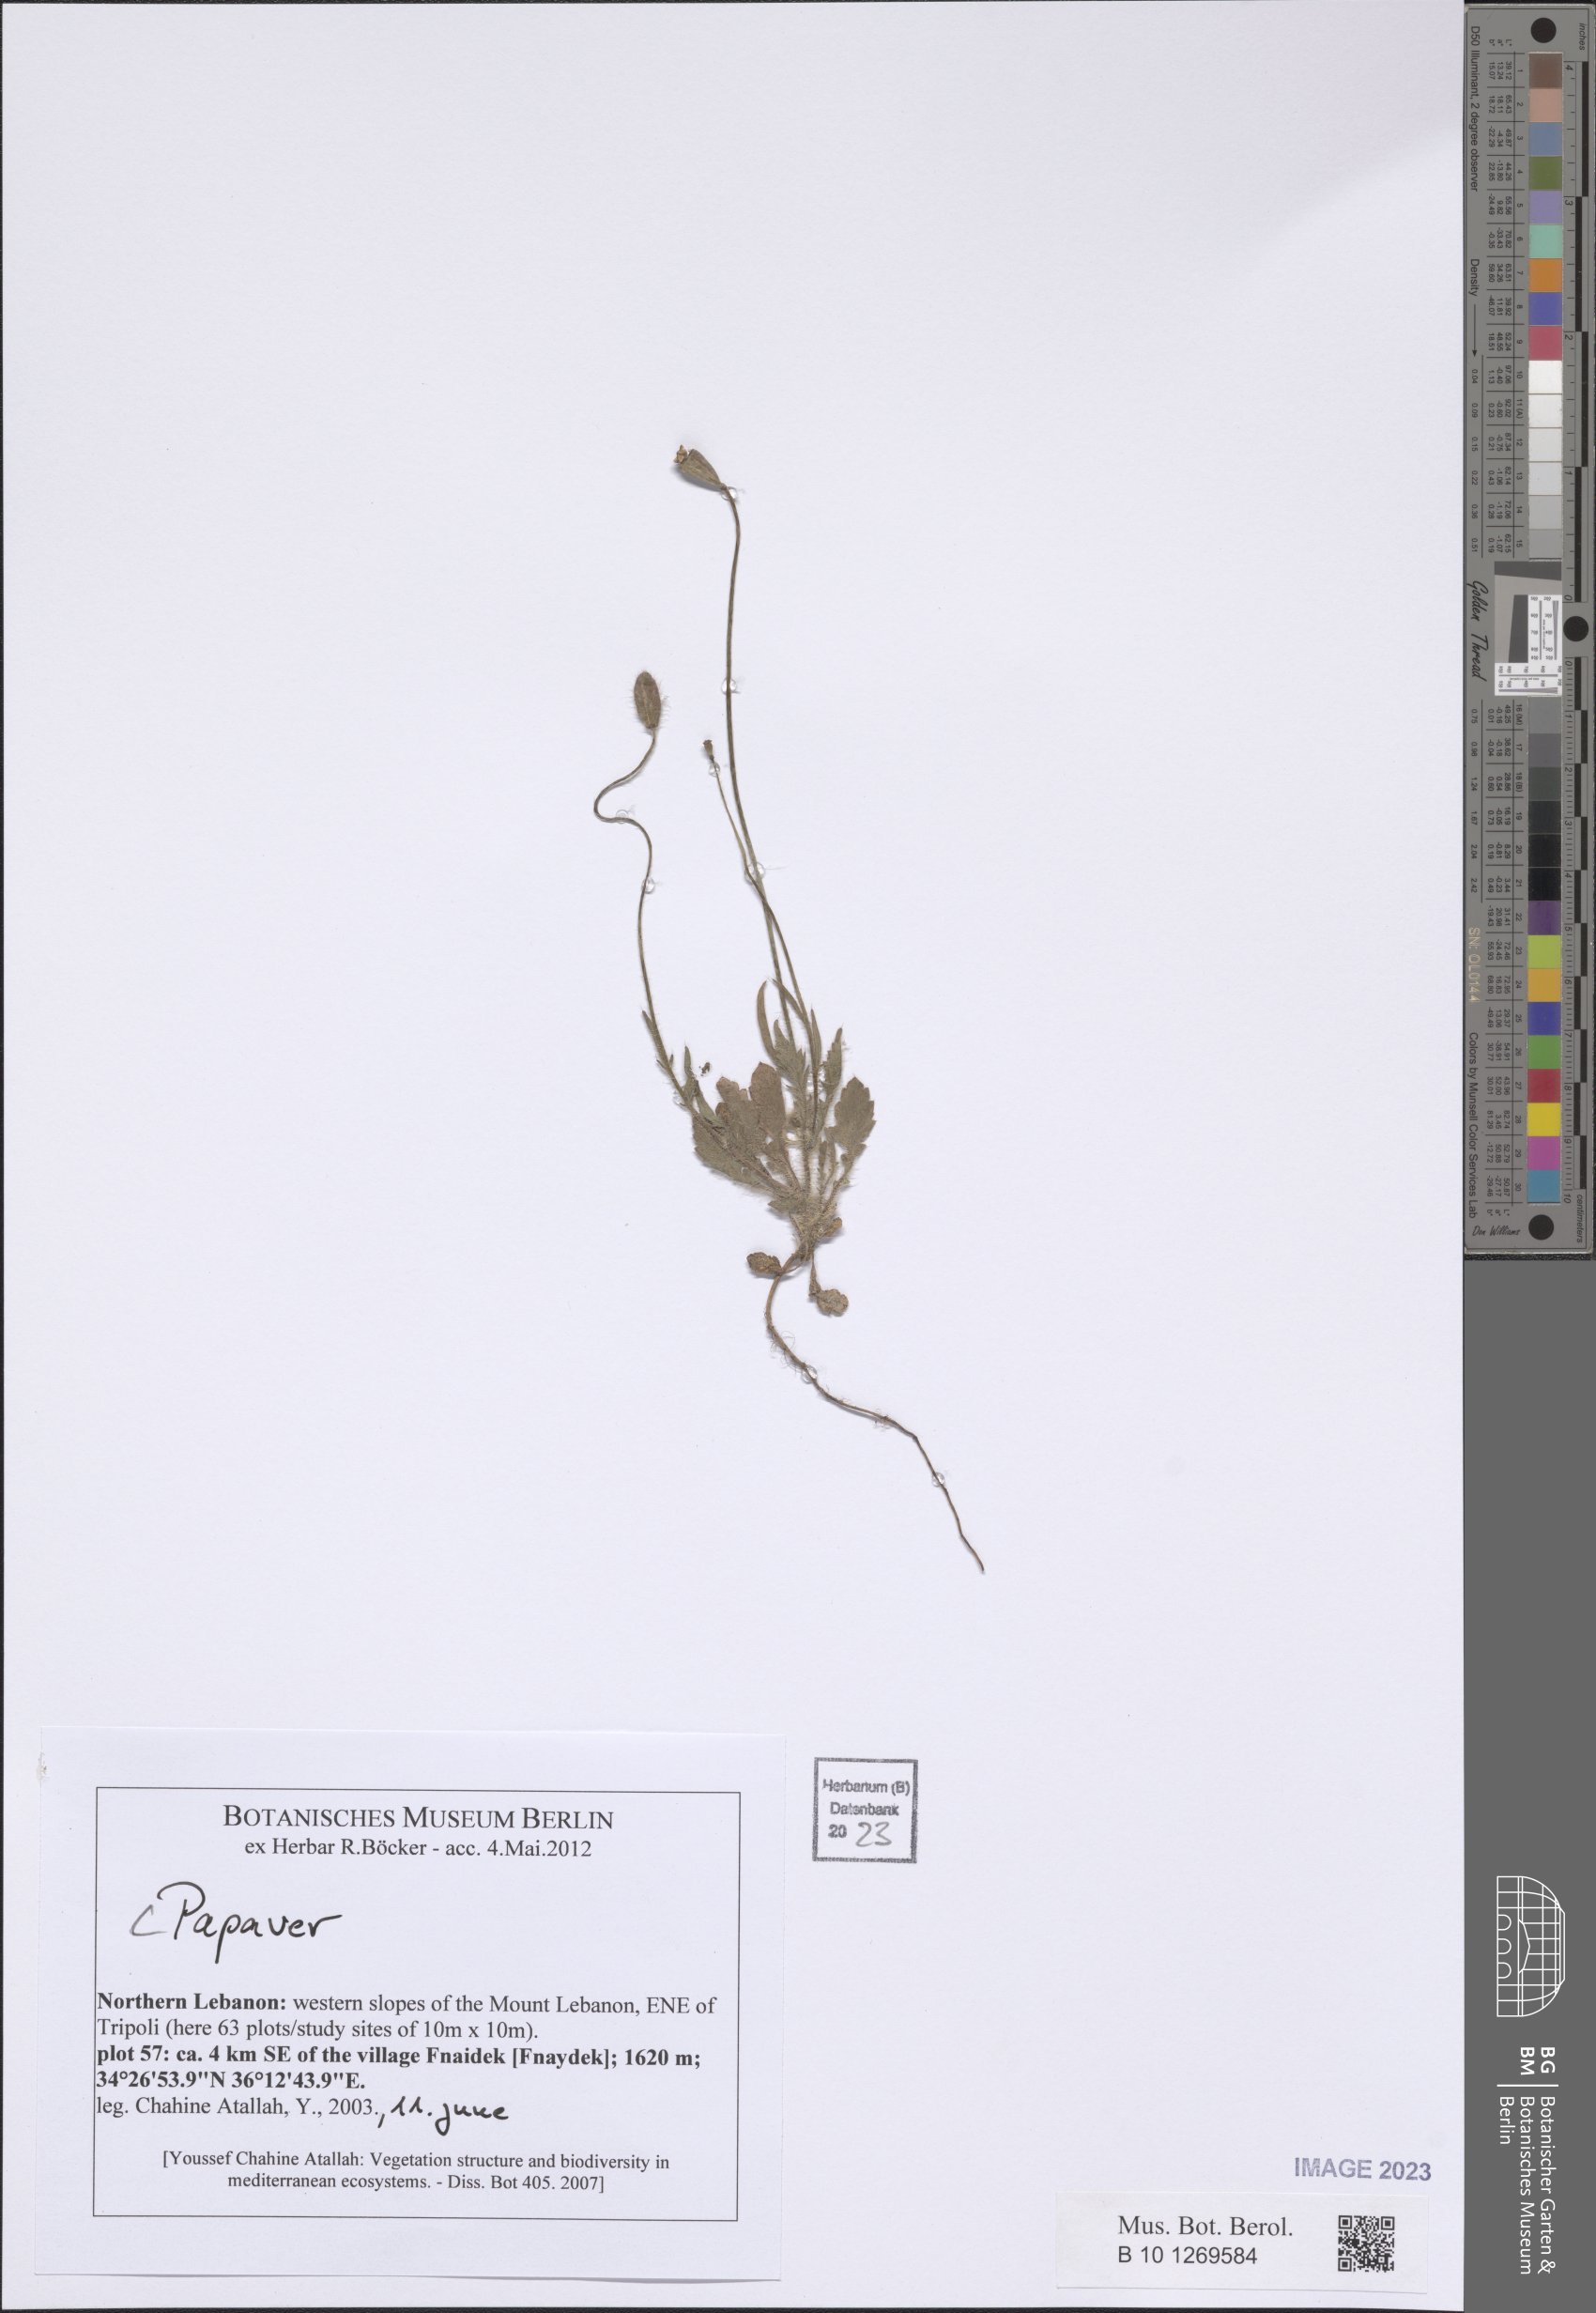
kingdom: Plantae
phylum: Tracheophyta
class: Magnoliopsida
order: Ranunculales
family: Papaveraceae
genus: Papaver
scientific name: Papaver
